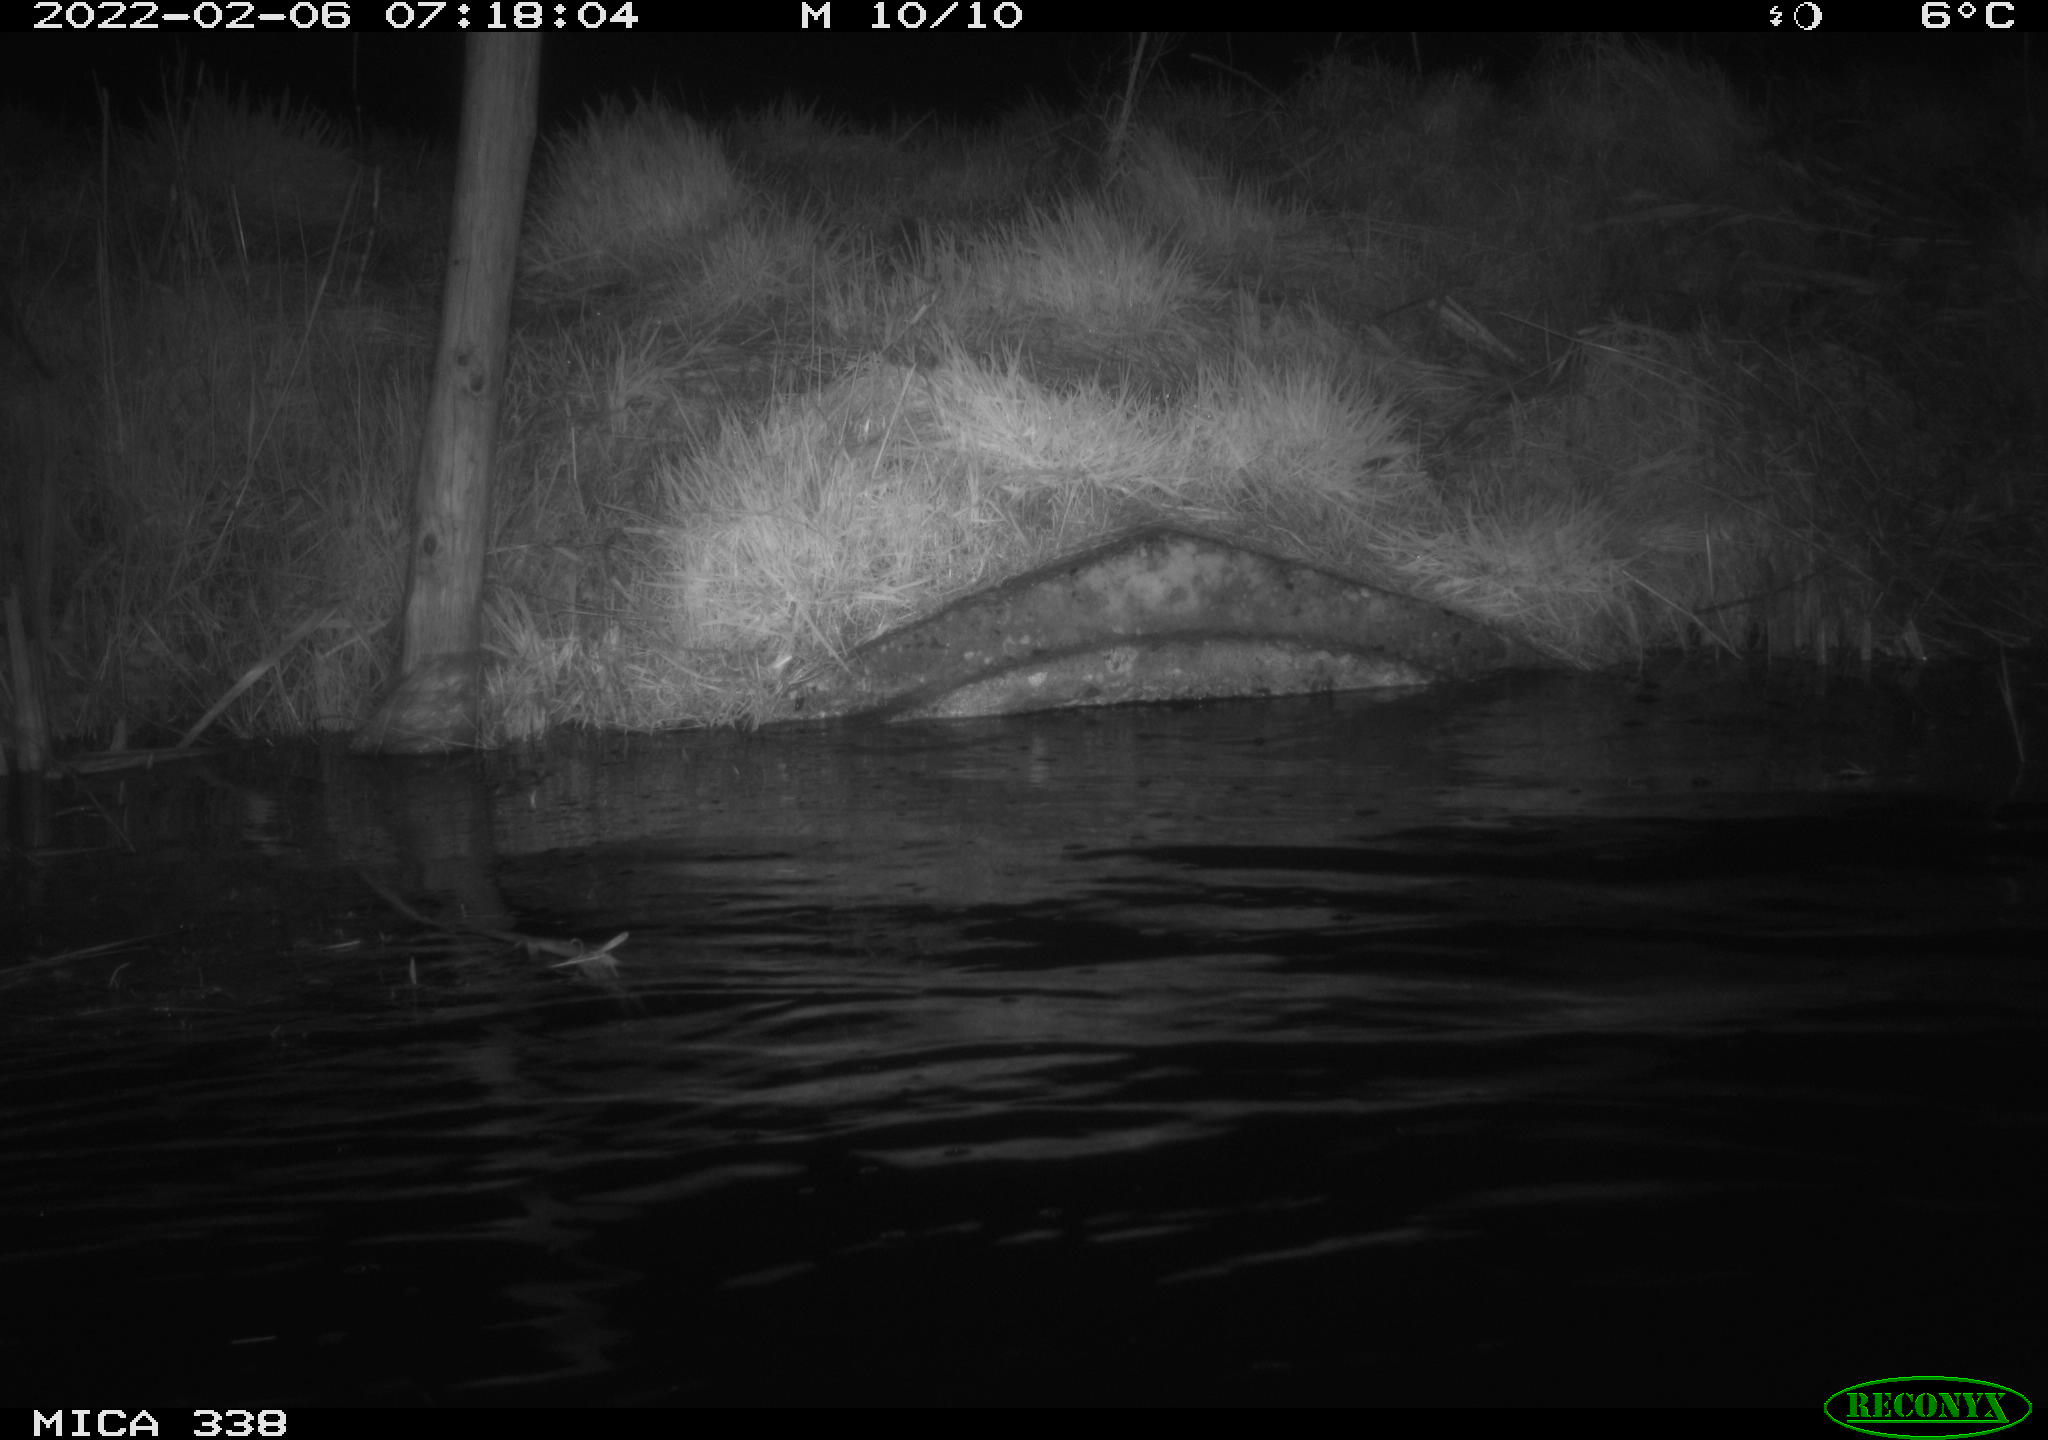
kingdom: Animalia
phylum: Chordata
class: Mammalia
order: Rodentia
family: Muridae
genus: Rattus
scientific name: Rattus norvegicus
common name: Brown rat
